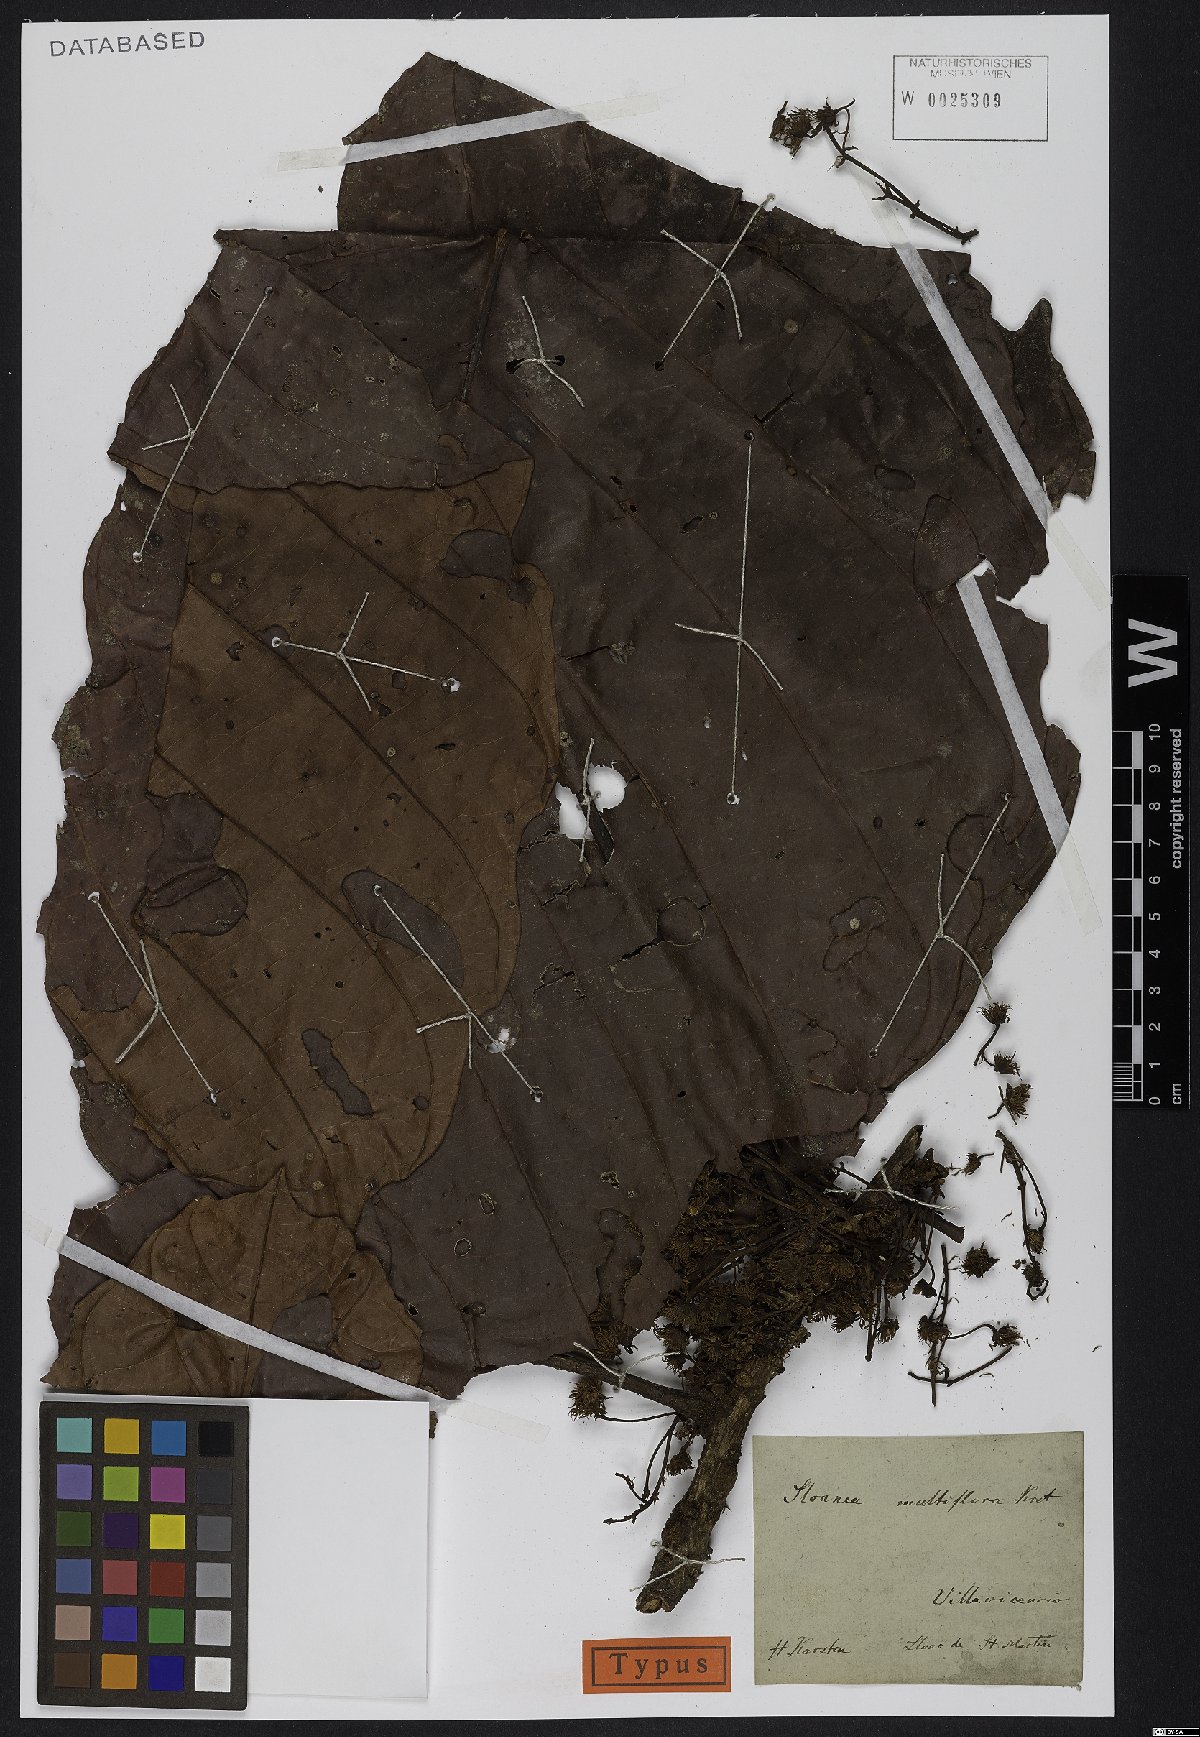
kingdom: Plantae
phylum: Tracheophyta
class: Magnoliopsida
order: Oxalidales
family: Elaeocarpaceae
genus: Sloanea
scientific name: Sloanea castanocarpa
